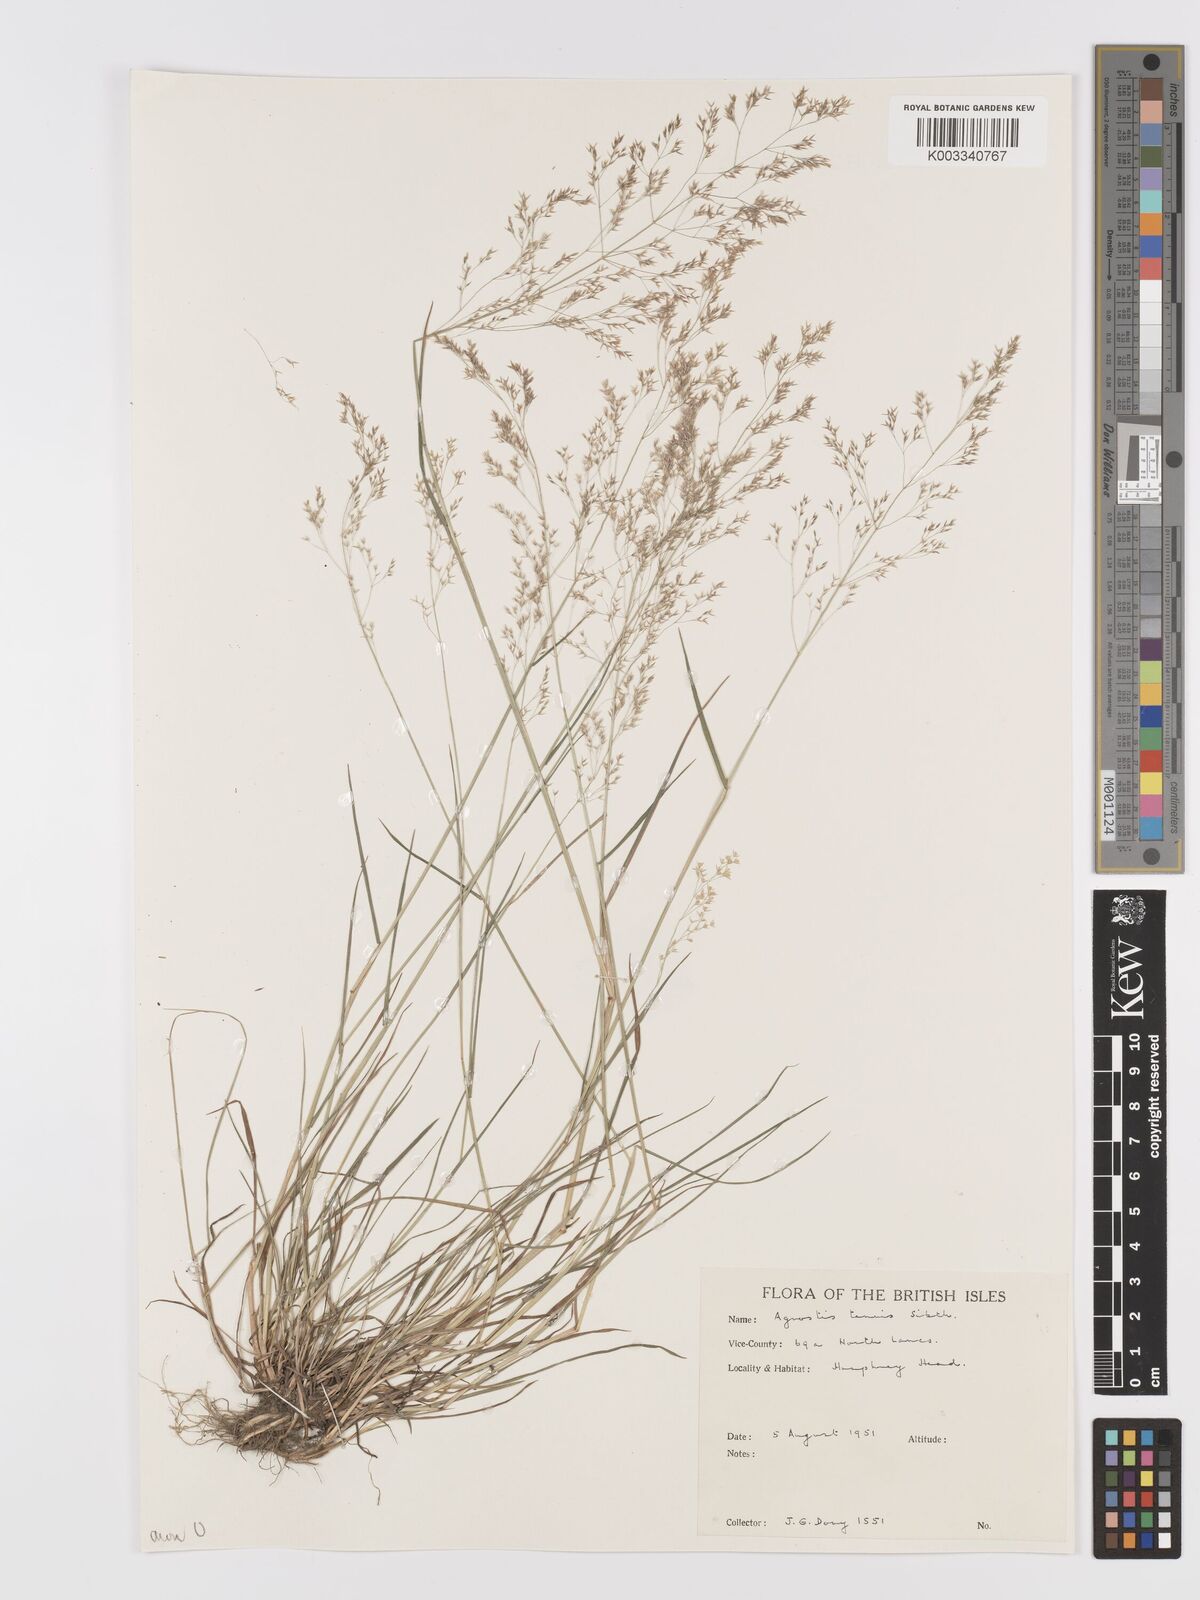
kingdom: Plantae
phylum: Tracheophyta
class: Liliopsida
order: Poales
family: Poaceae
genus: Agrostis
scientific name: Agrostis capillaris
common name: Colonial bentgrass
